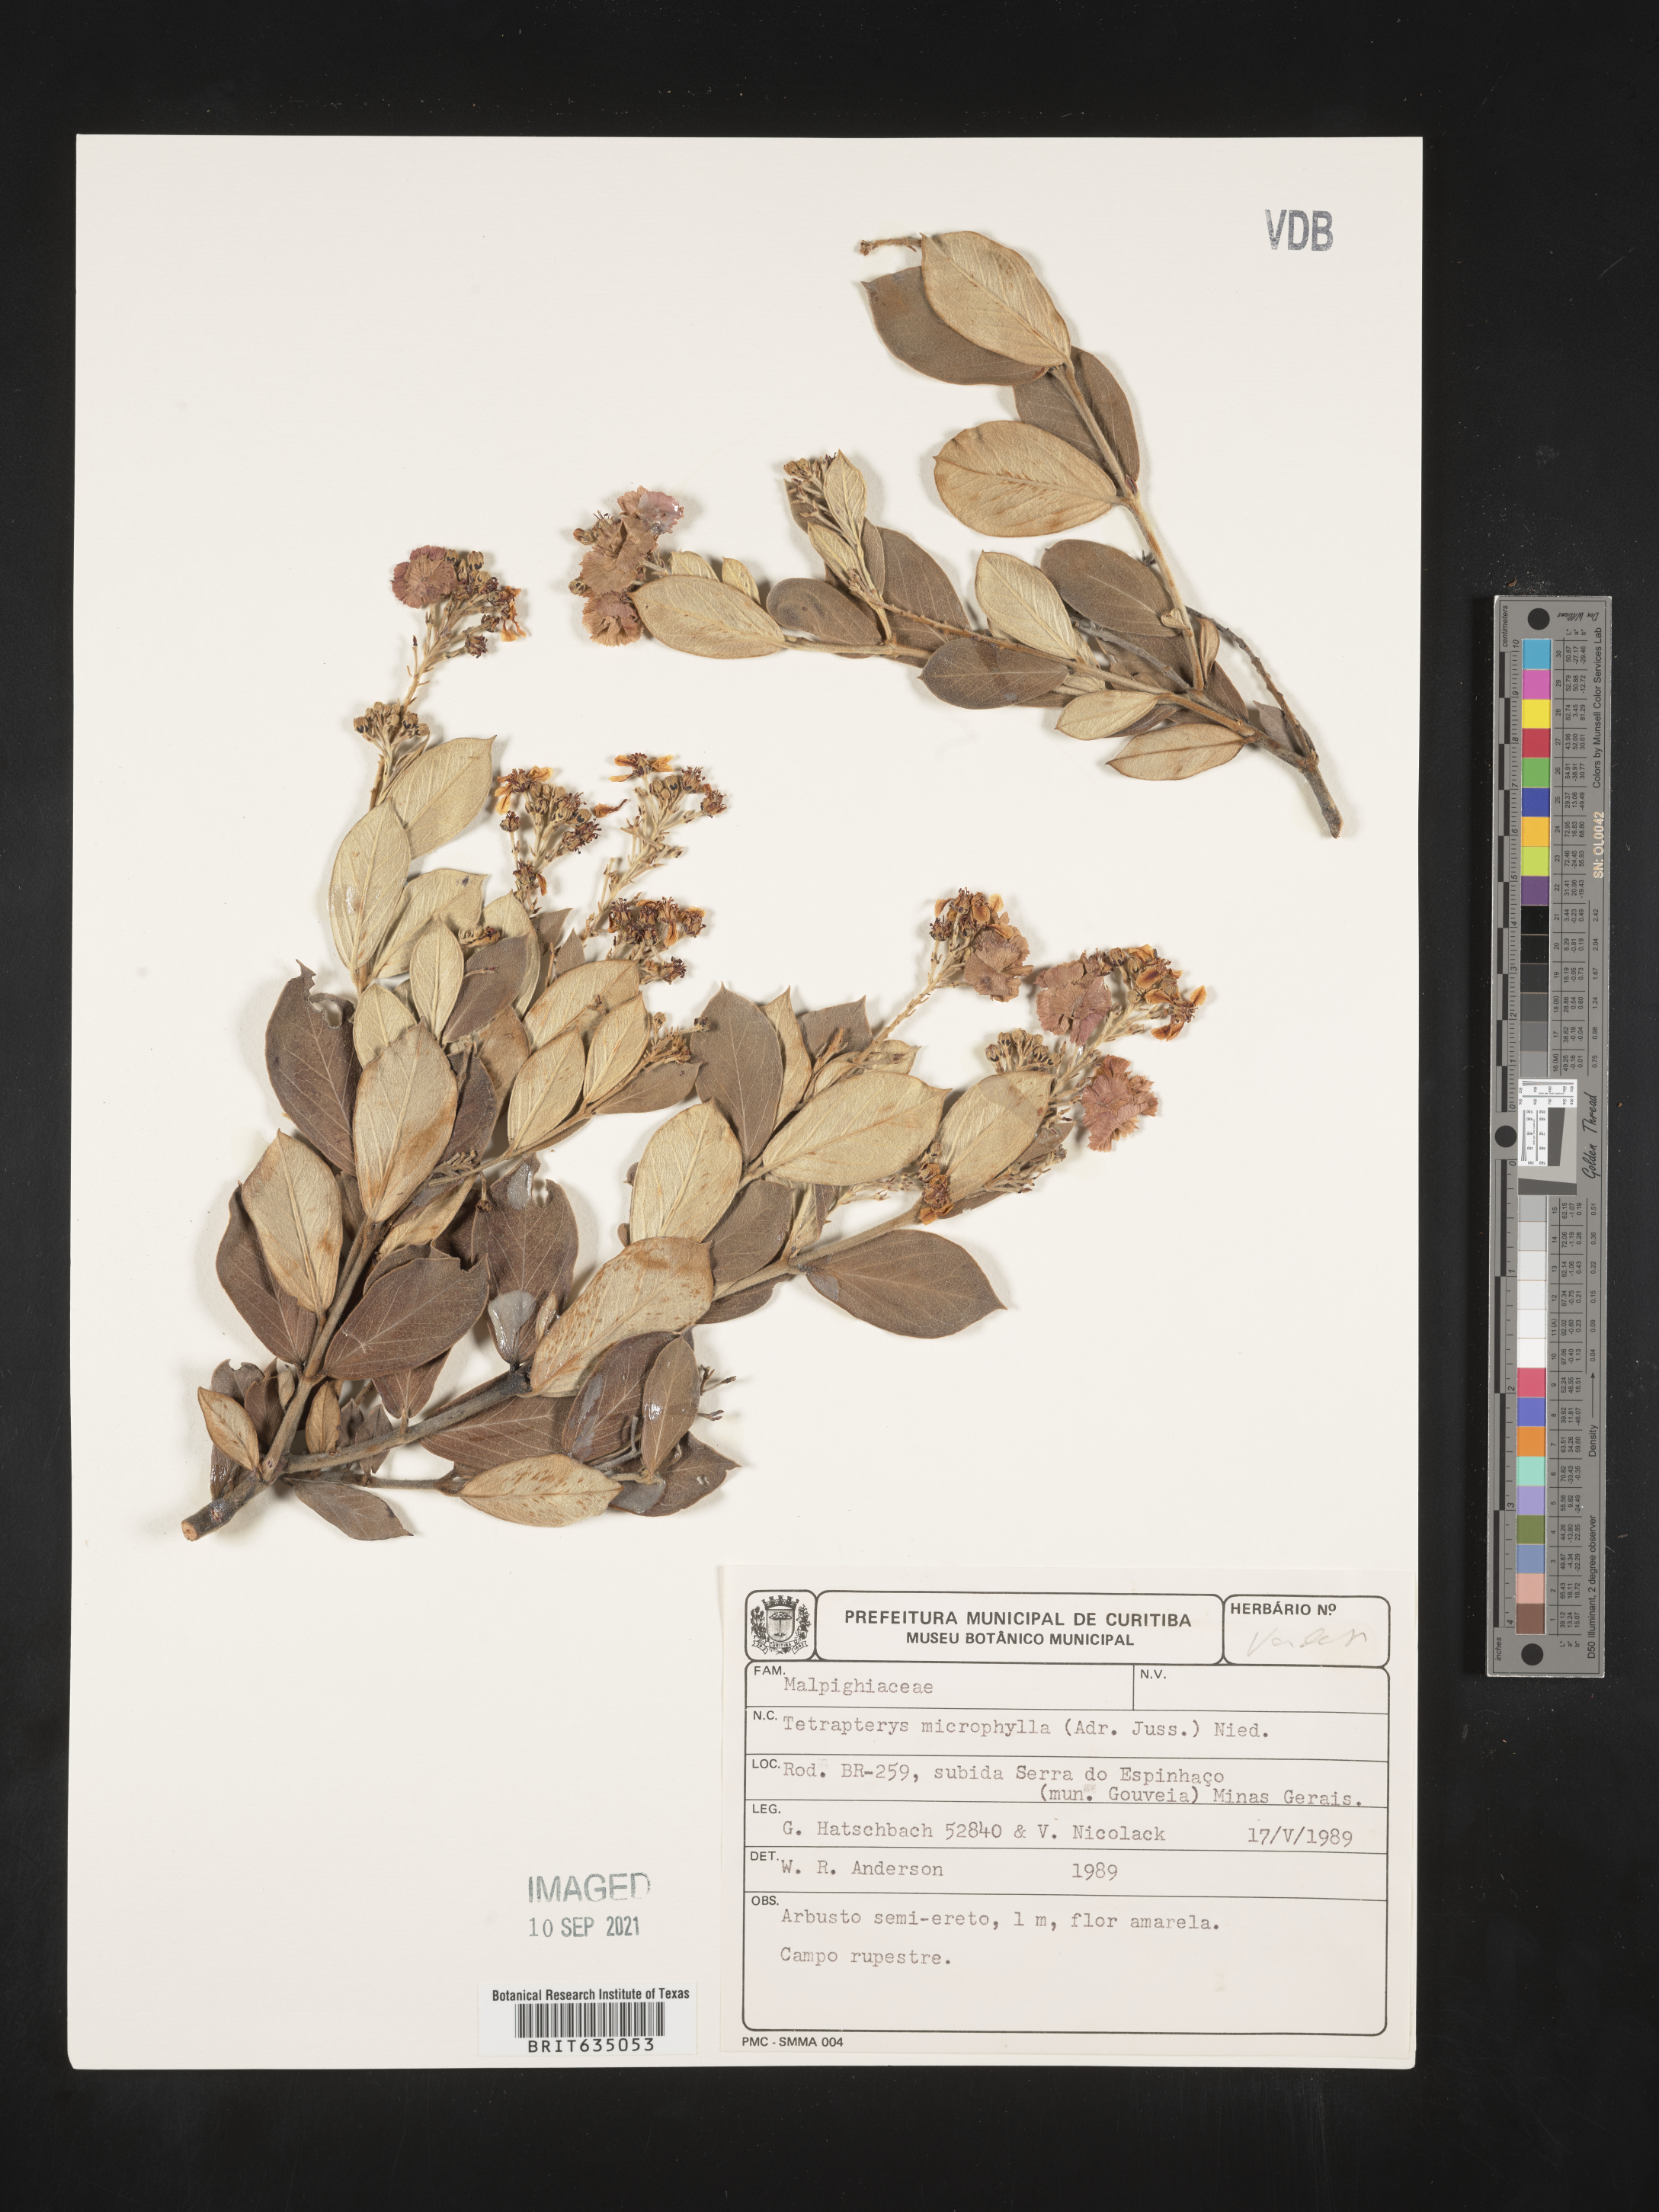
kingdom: Plantae
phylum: Tracheophyta
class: Magnoliopsida
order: Ericales
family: Styracaceae
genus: Tetrapteris
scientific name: Tetrapteris
